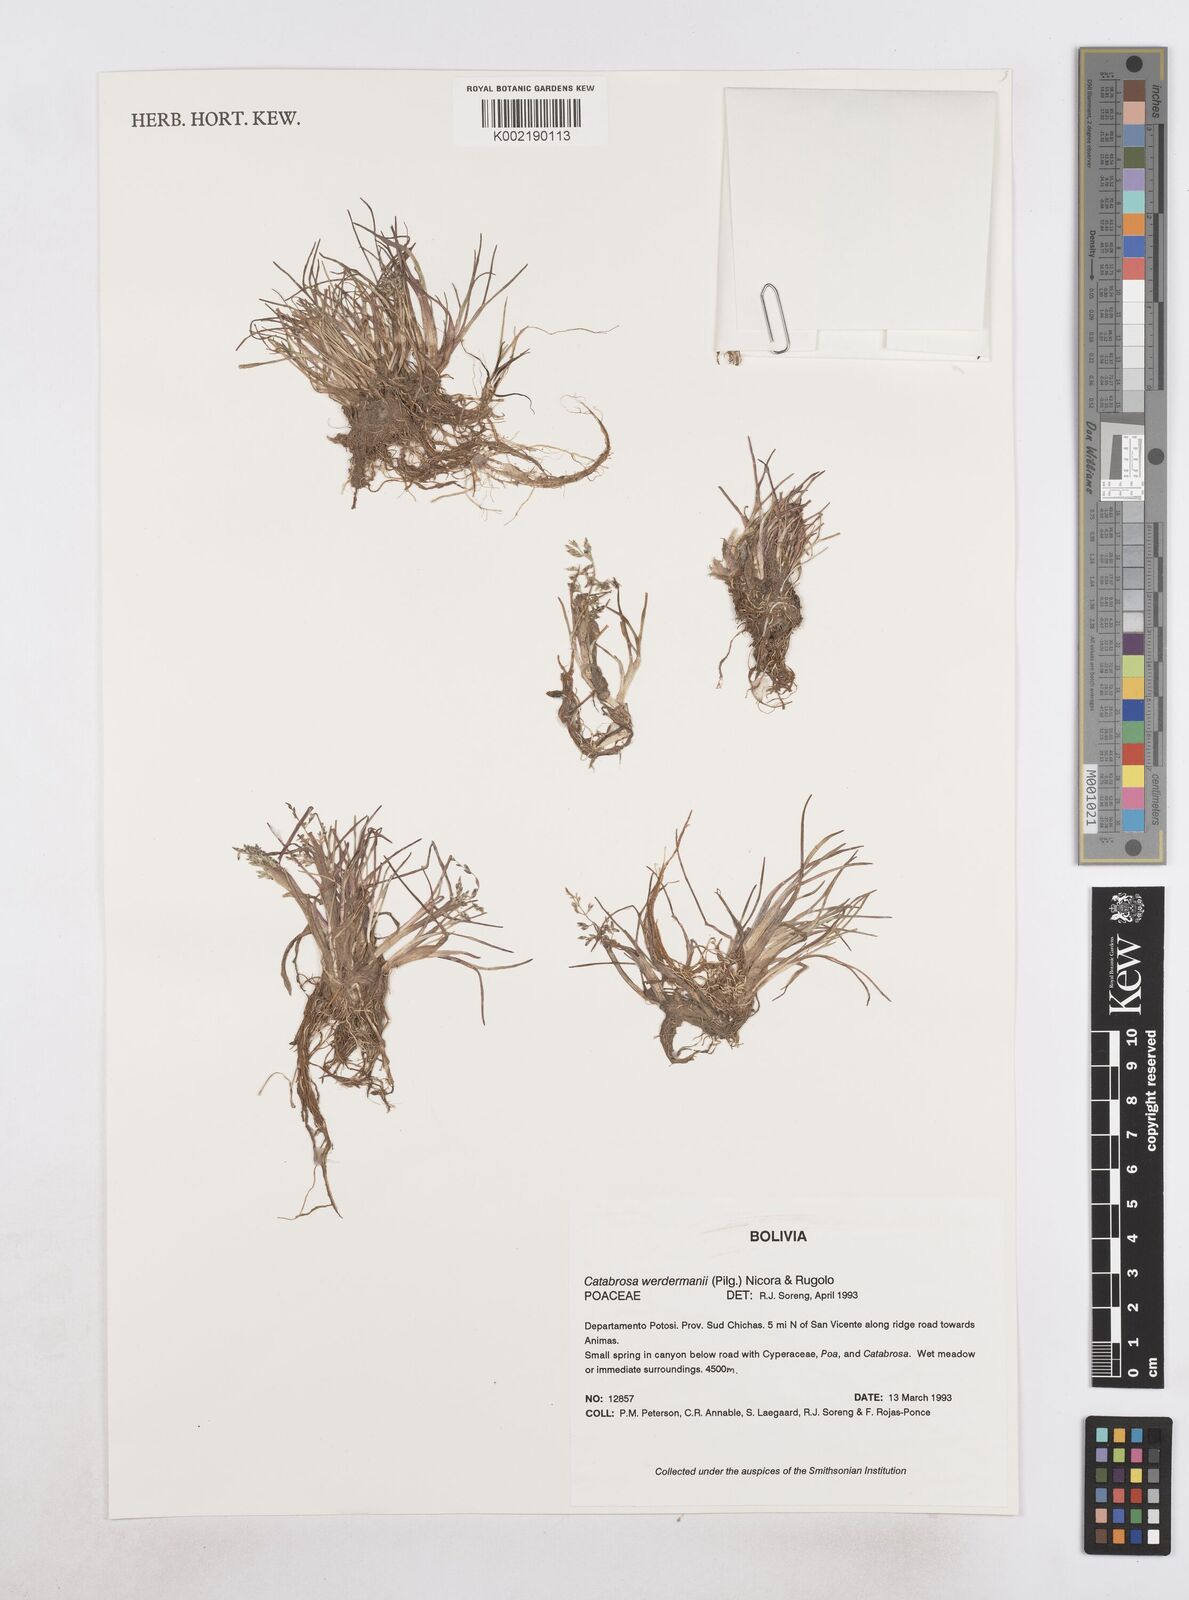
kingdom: Plantae
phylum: Tracheophyta
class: Liliopsida
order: Poales
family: Poaceae
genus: Catabrosa
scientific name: Catabrosa werdermannii
